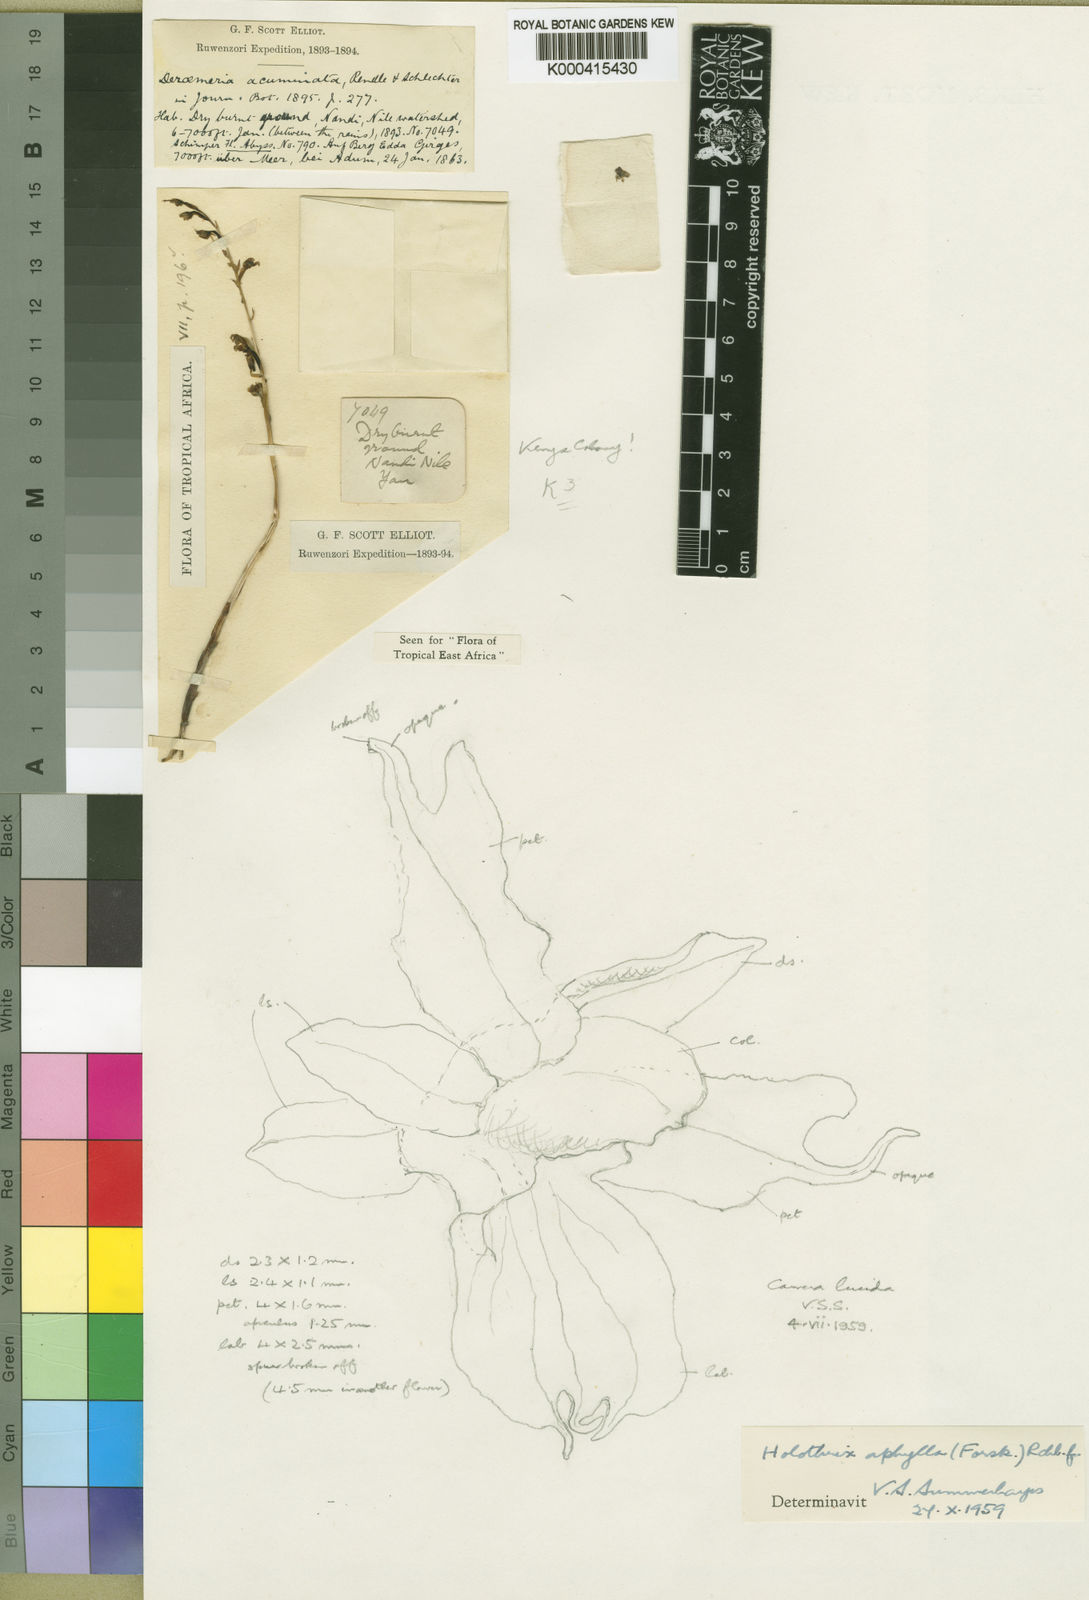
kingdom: Plantae
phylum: Tracheophyta
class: Liliopsida
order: Asparagales
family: Orchidaceae
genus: Holothrix
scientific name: Holothrix aphylla
